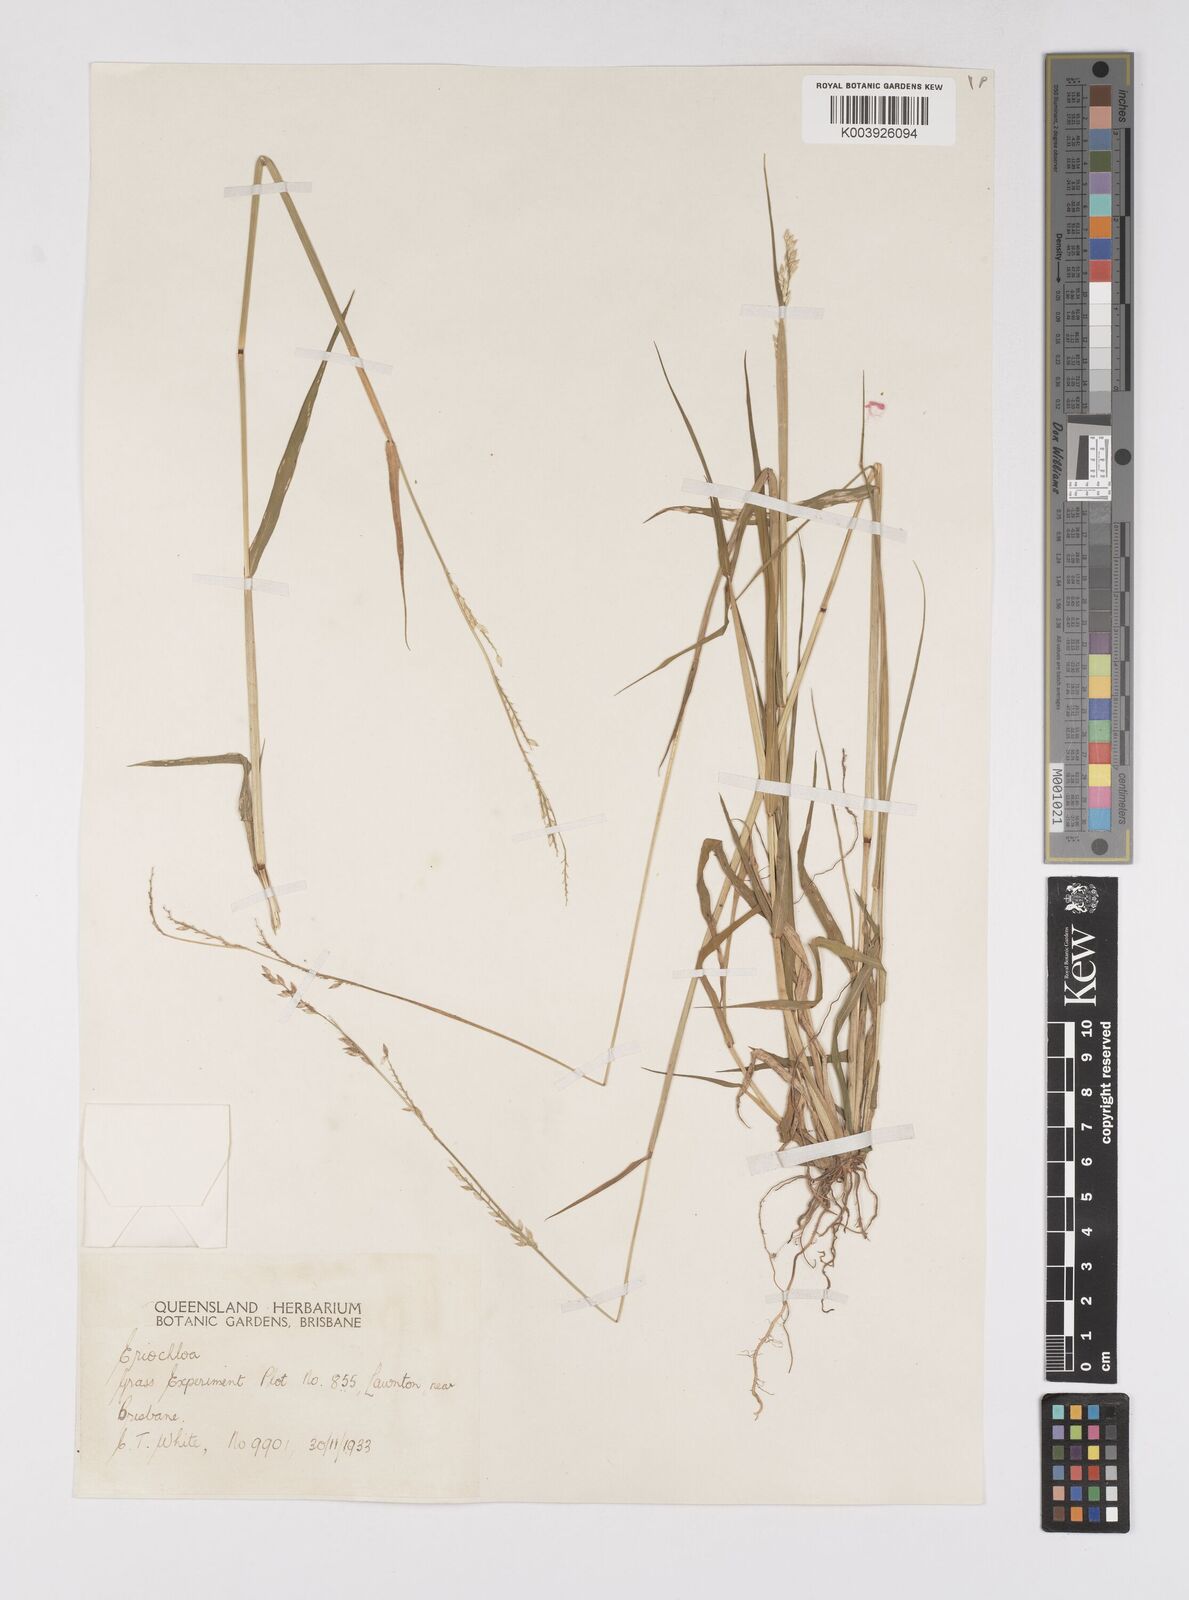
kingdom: Plantae
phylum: Tracheophyta
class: Liliopsida
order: Poales
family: Poaceae
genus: Eriochloa
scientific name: Eriochloa
